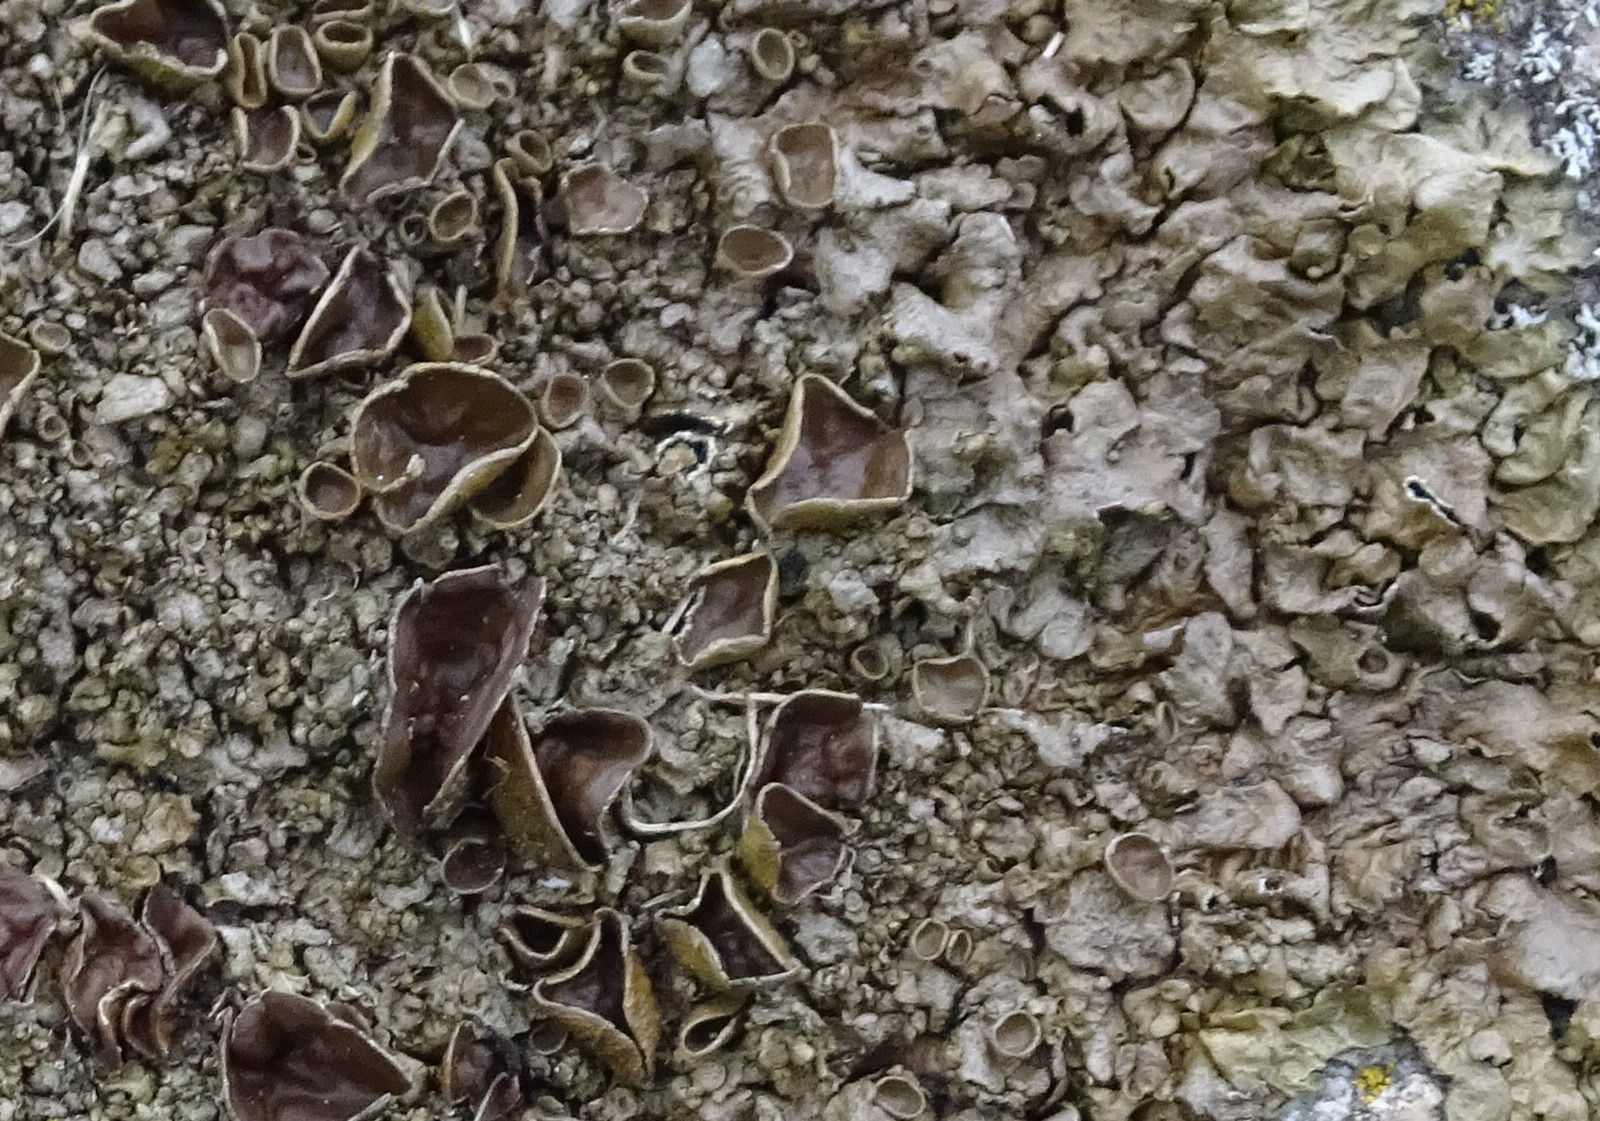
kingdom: Fungi
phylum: Ascomycota
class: Lecanoromycetes
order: Lecanorales
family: Parmeliaceae
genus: Xanthoparmelia
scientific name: Xanthoparmelia pulla
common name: mørkebrun skållav
